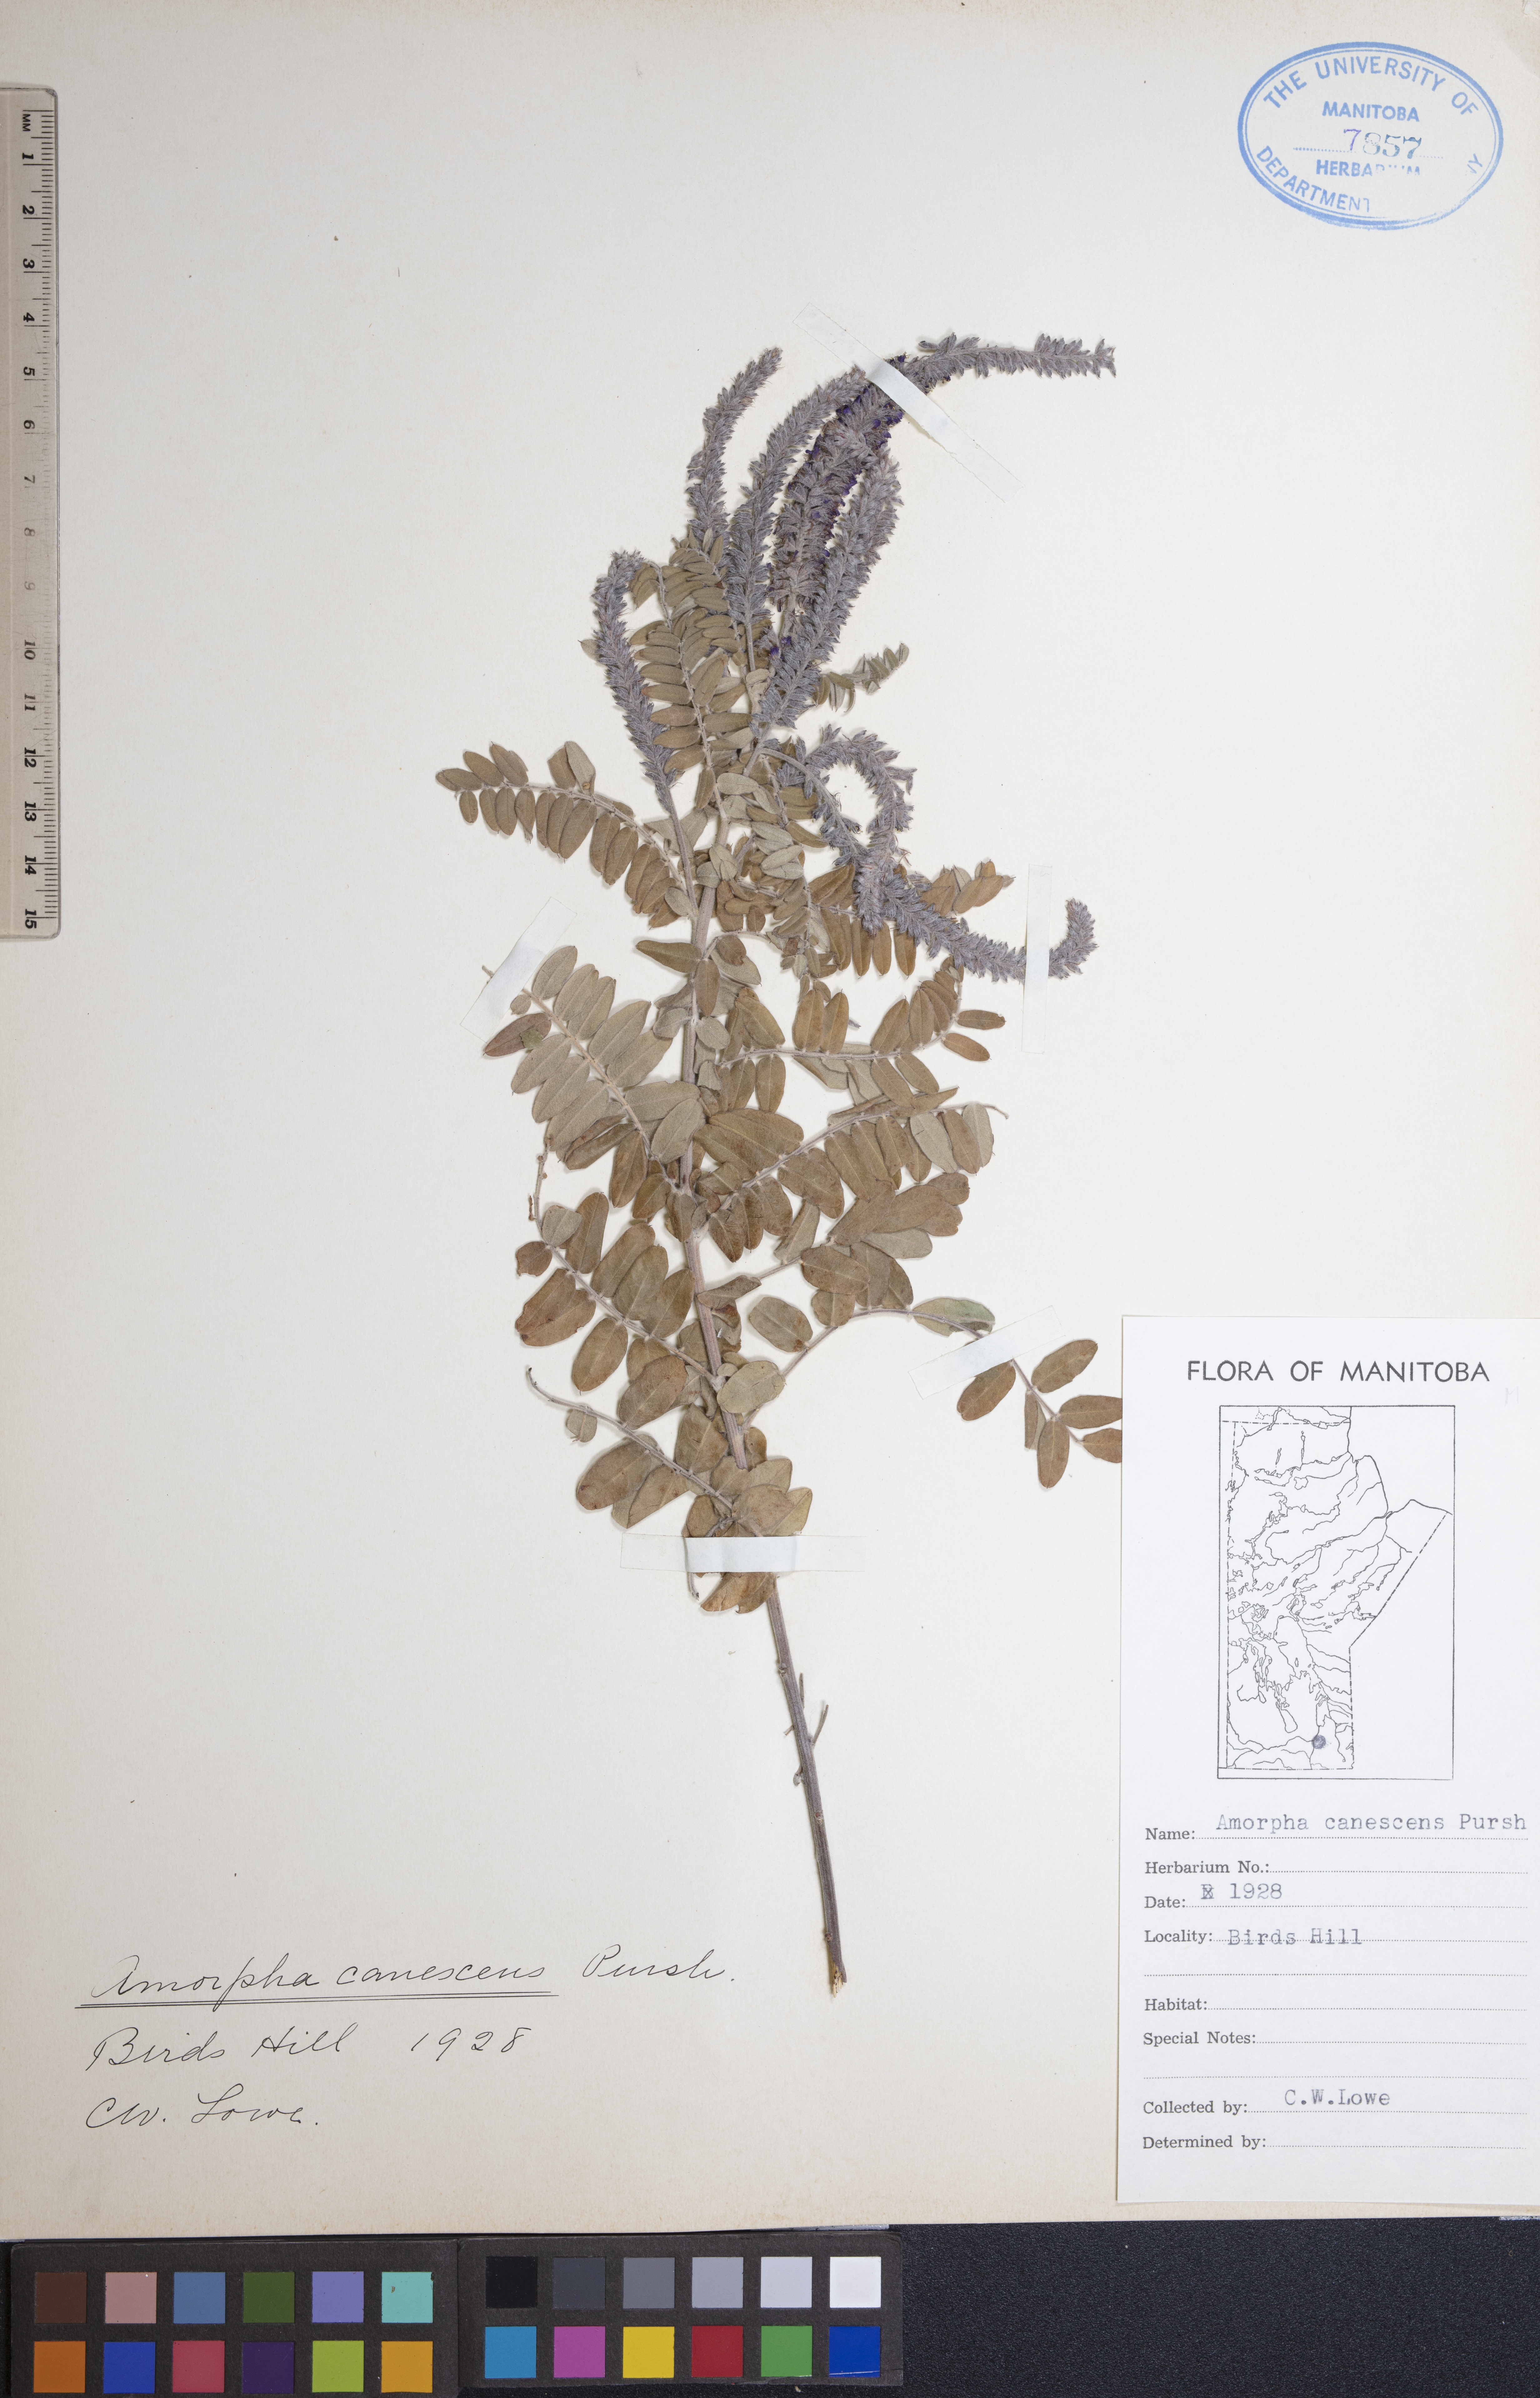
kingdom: Plantae
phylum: Tracheophyta
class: Magnoliopsida
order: Fabales
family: Fabaceae
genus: Amorpha
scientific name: Amorpha canescens
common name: Leadplant
